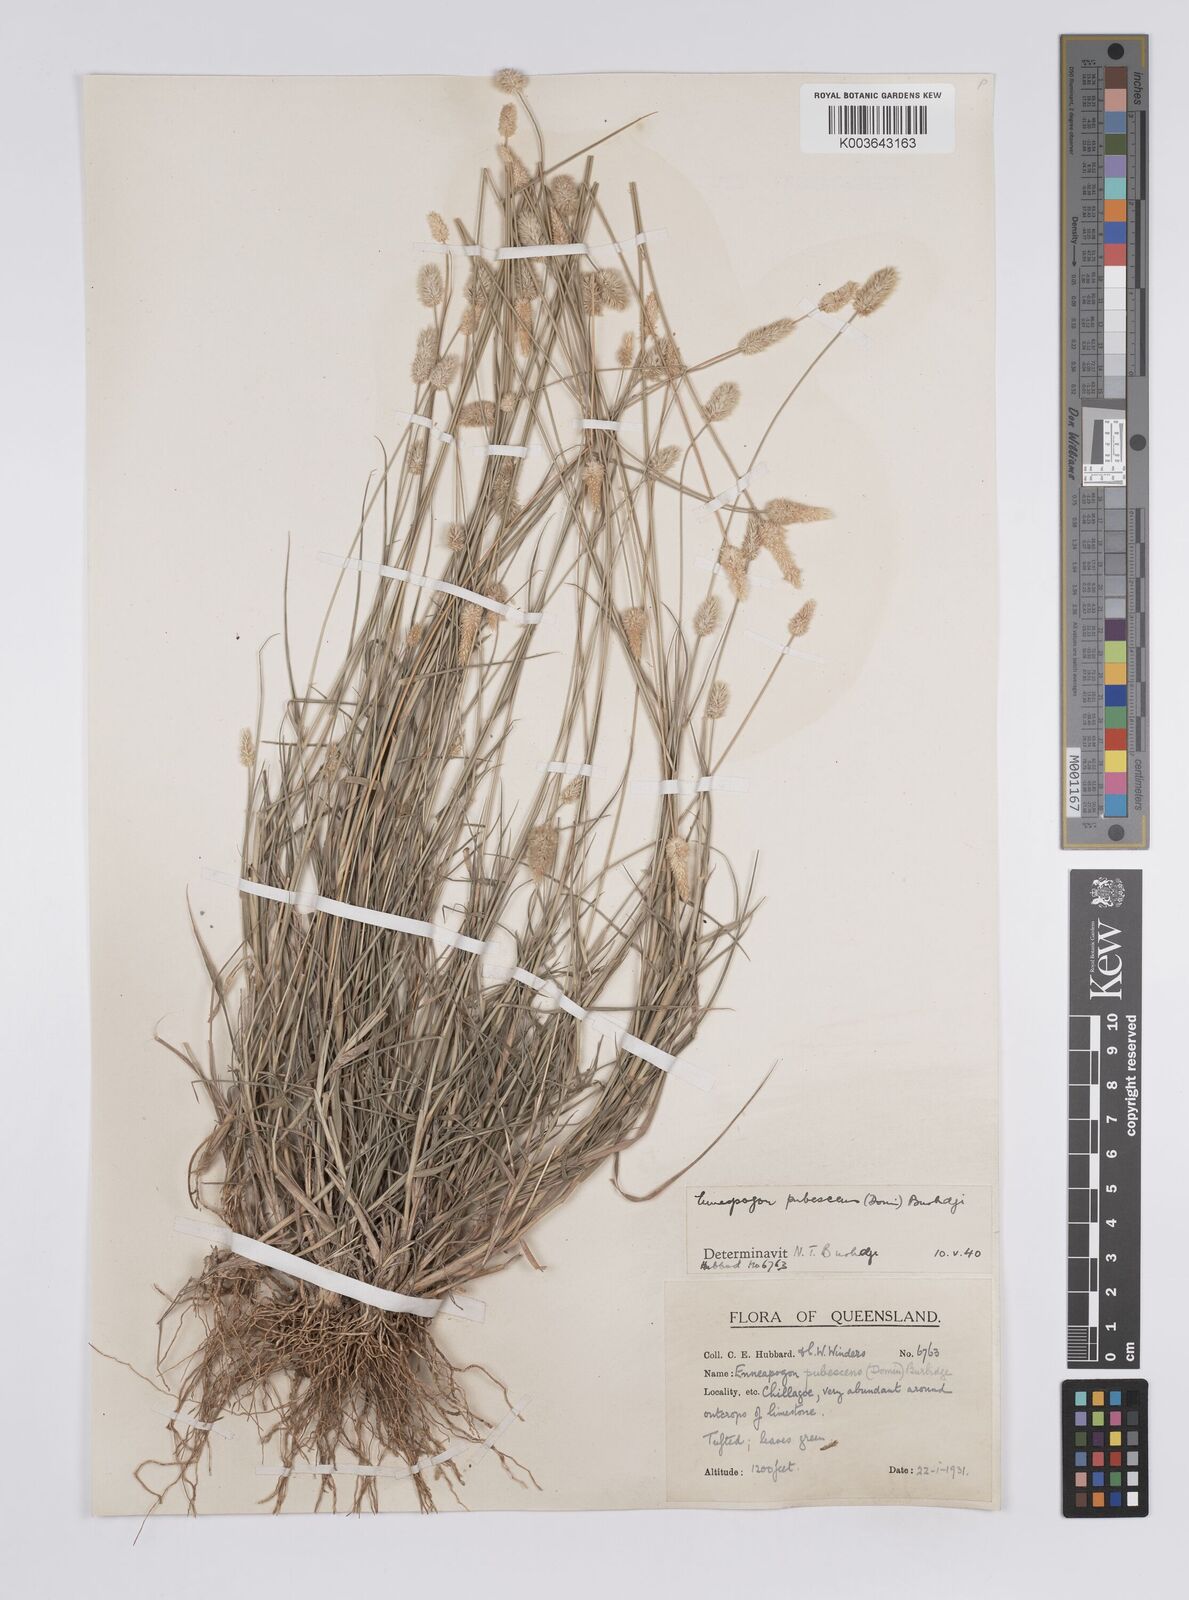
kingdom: Plantae
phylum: Tracheophyta
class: Liliopsida
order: Poales
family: Poaceae
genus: Enneapogon
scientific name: Enneapogon lindleyanus
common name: Conetop nineawn
